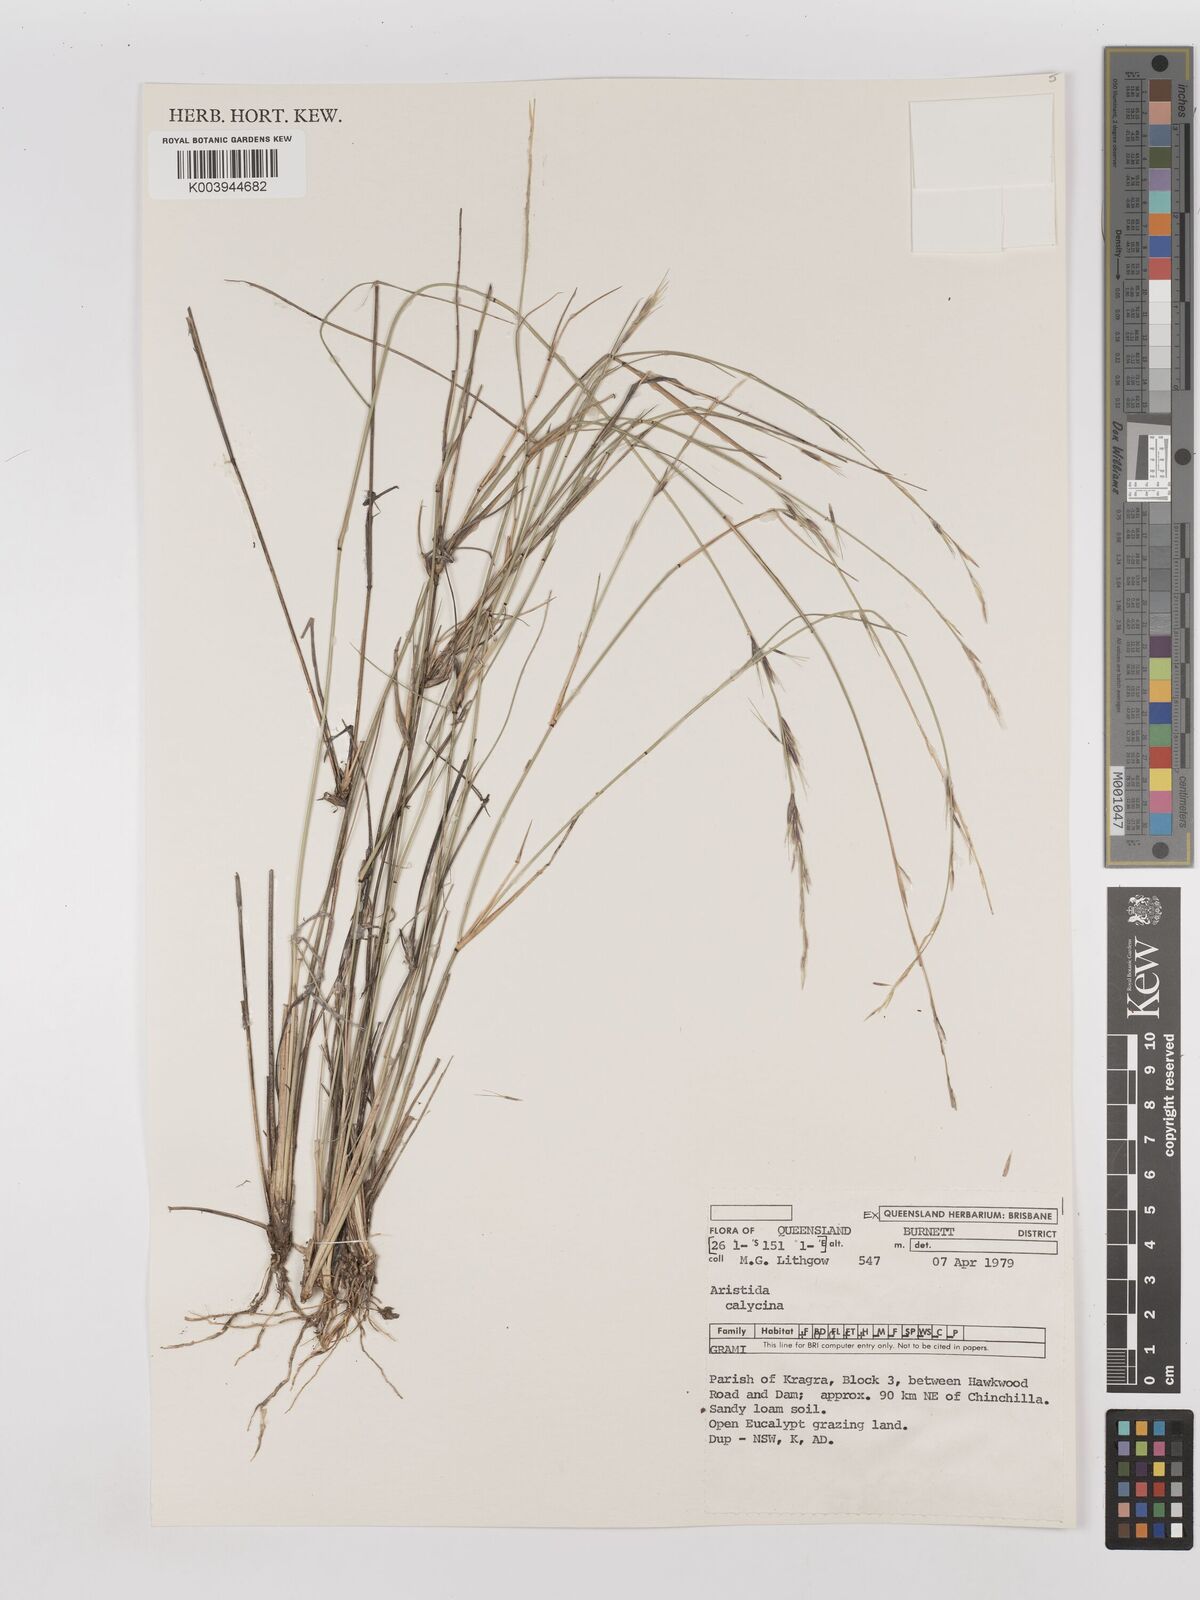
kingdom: Plantae
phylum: Tracheophyta
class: Liliopsida
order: Poales
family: Poaceae
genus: Aristida
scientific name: Aristida calycina
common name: Dark wire grass
